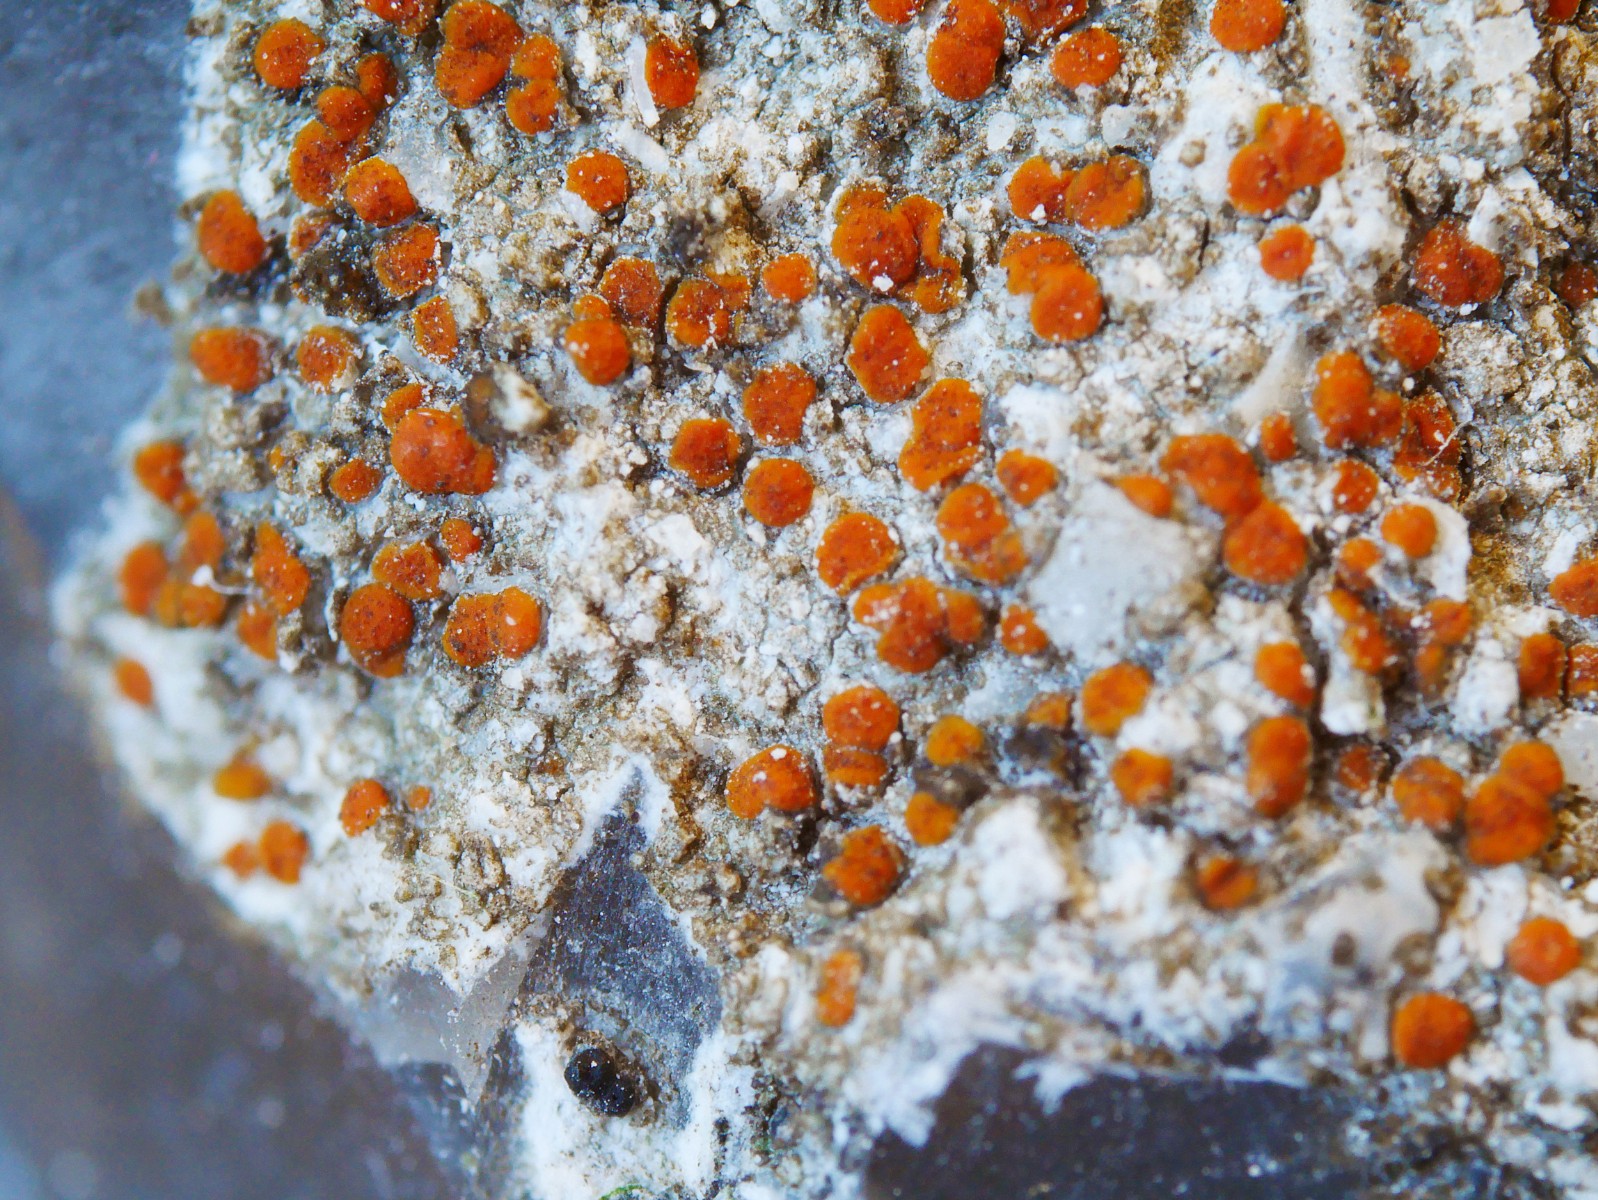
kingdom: Fungi
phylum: Ascomycota
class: Lecanoromycetes
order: Lecanorales
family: Psoraceae
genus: Protoblastenia
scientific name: Protoblastenia rupestris
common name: kalk-gulskivelav
